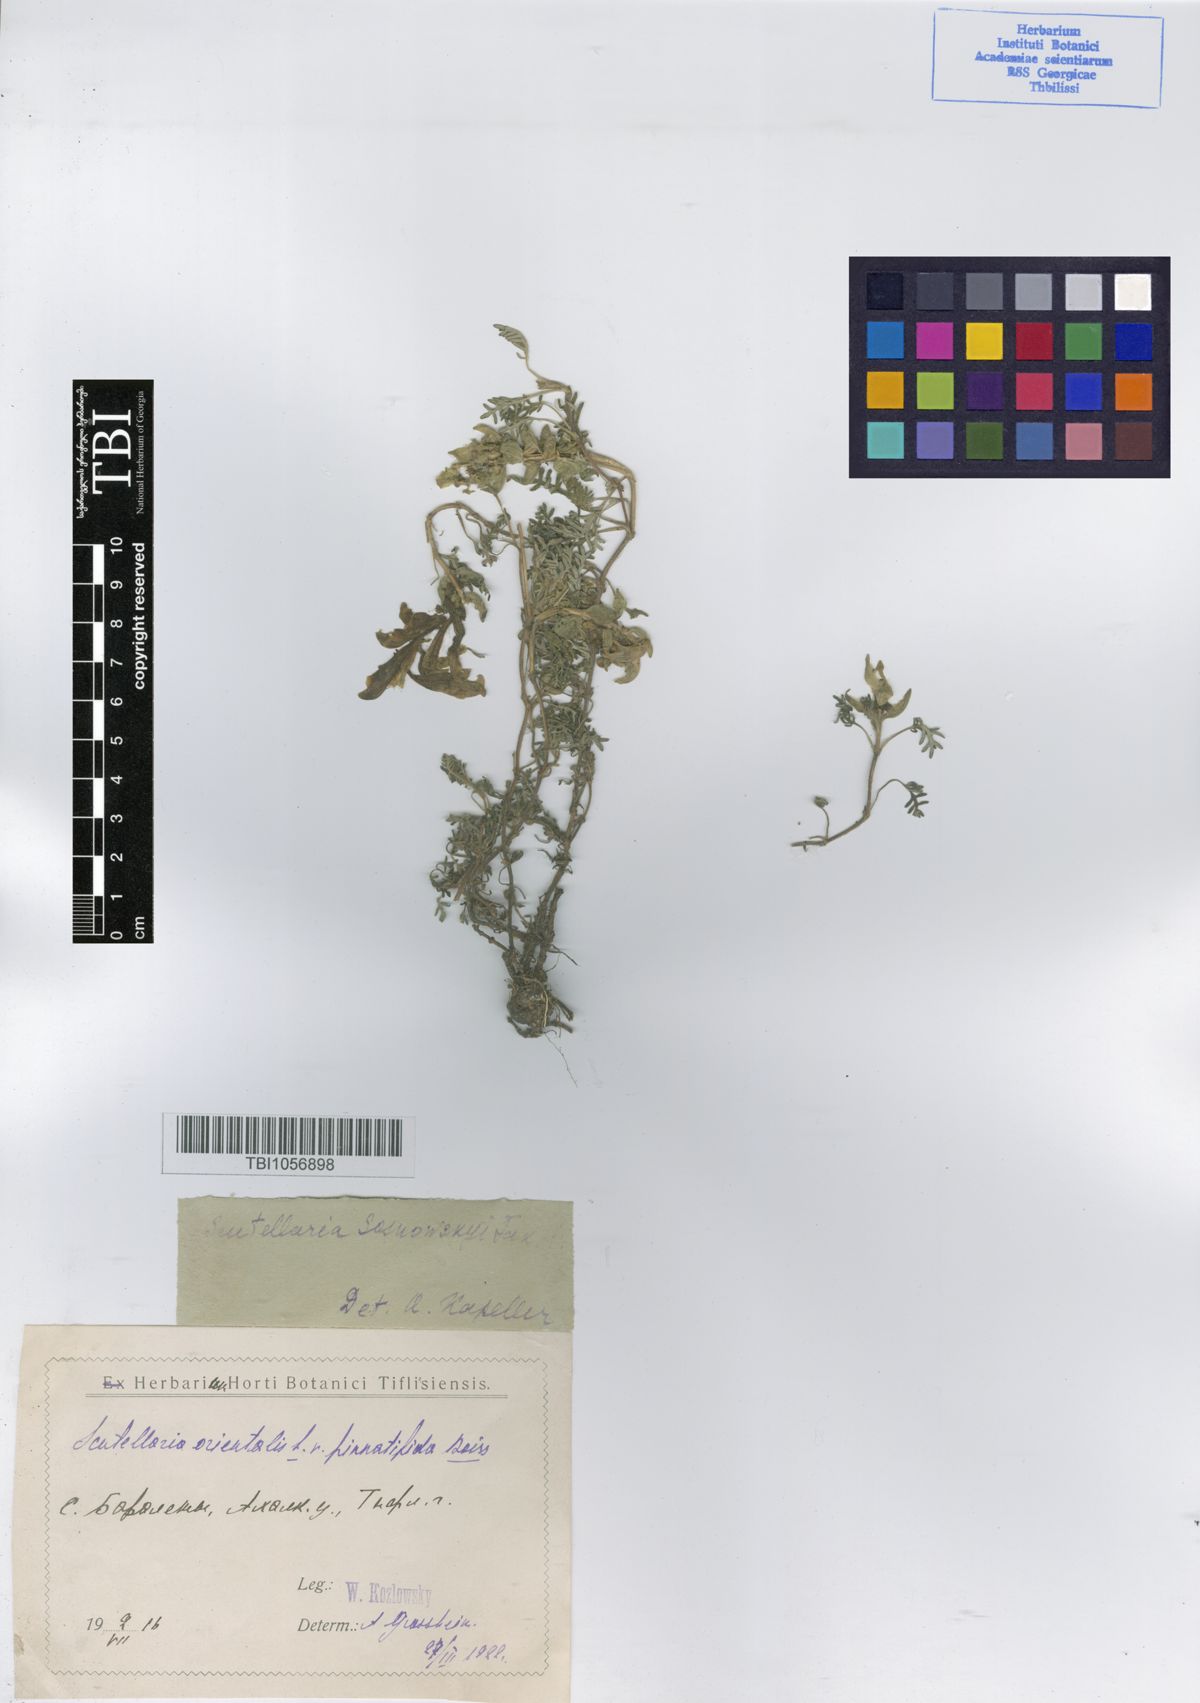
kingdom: Plantae
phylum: Tracheophyta
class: Magnoliopsida
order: Lamiales
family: Lamiaceae
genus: Scutellaria
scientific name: Scutellaria sosnowskyi
